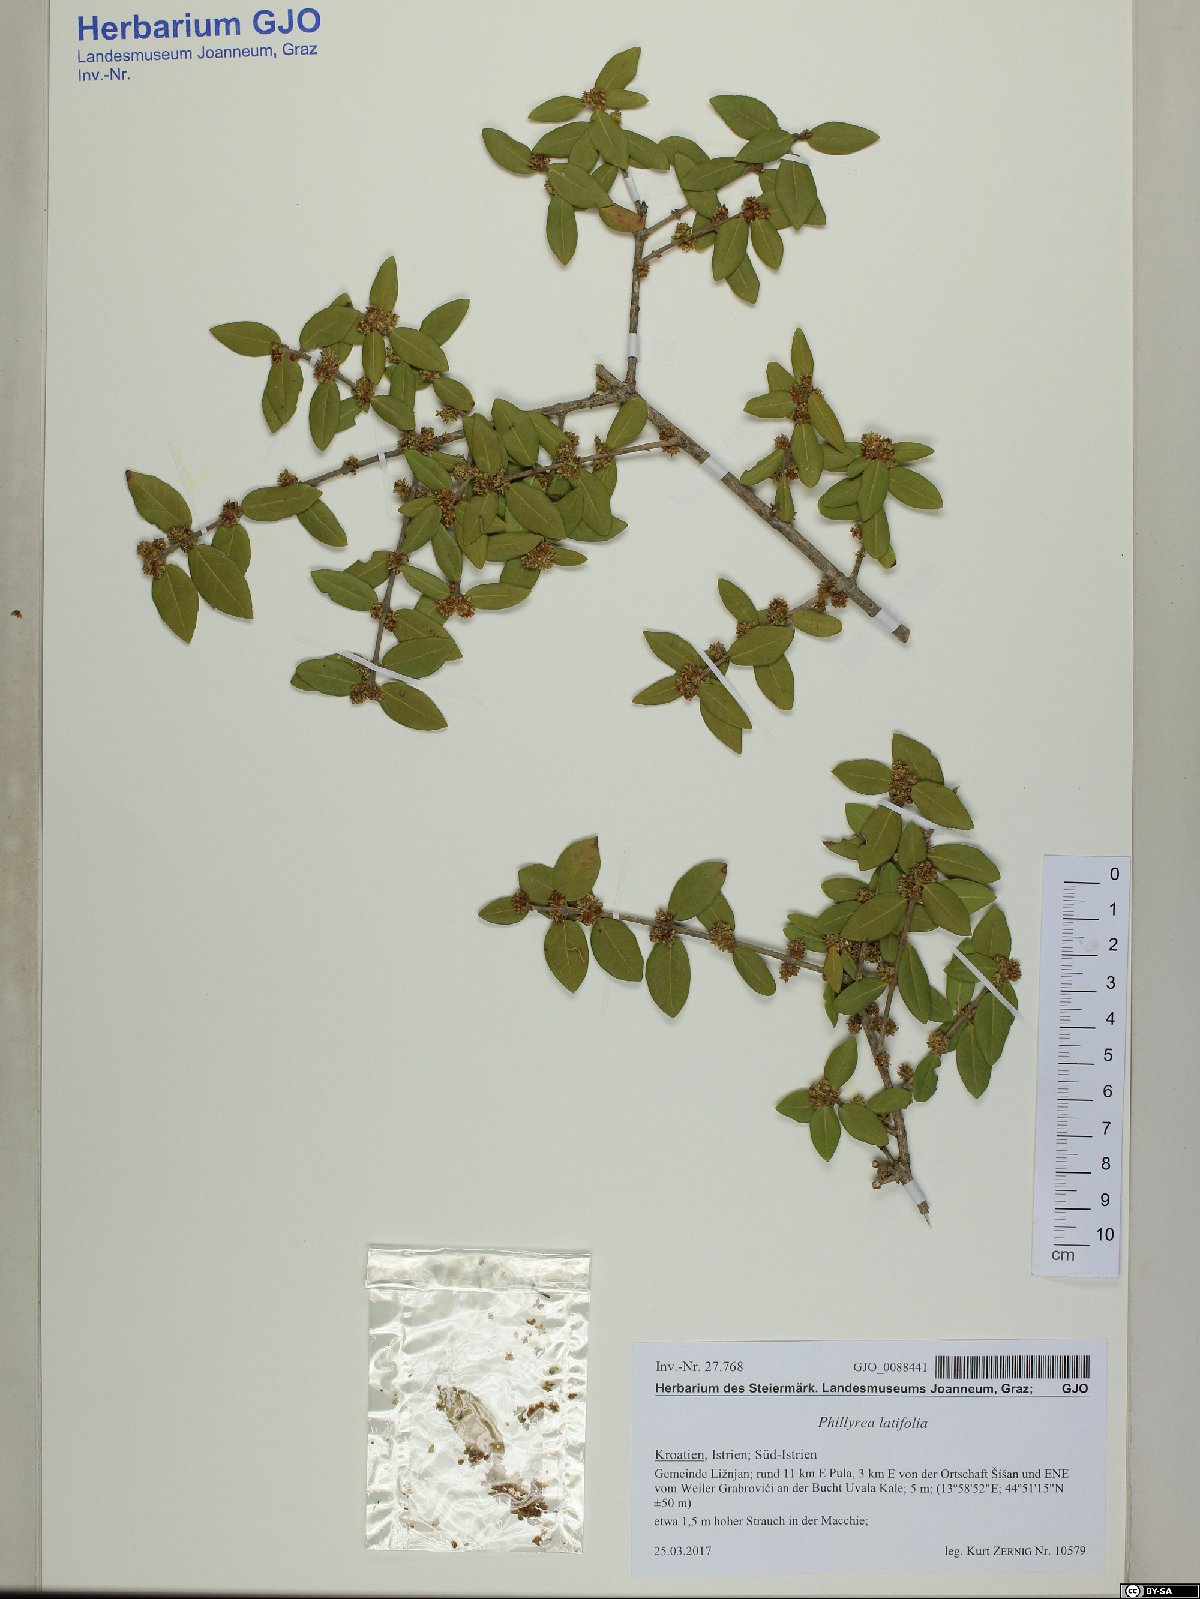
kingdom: Plantae
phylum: Tracheophyta
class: Magnoliopsida
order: Lamiales
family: Oleaceae
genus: Phillyrea
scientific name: Phillyrea latifolia
